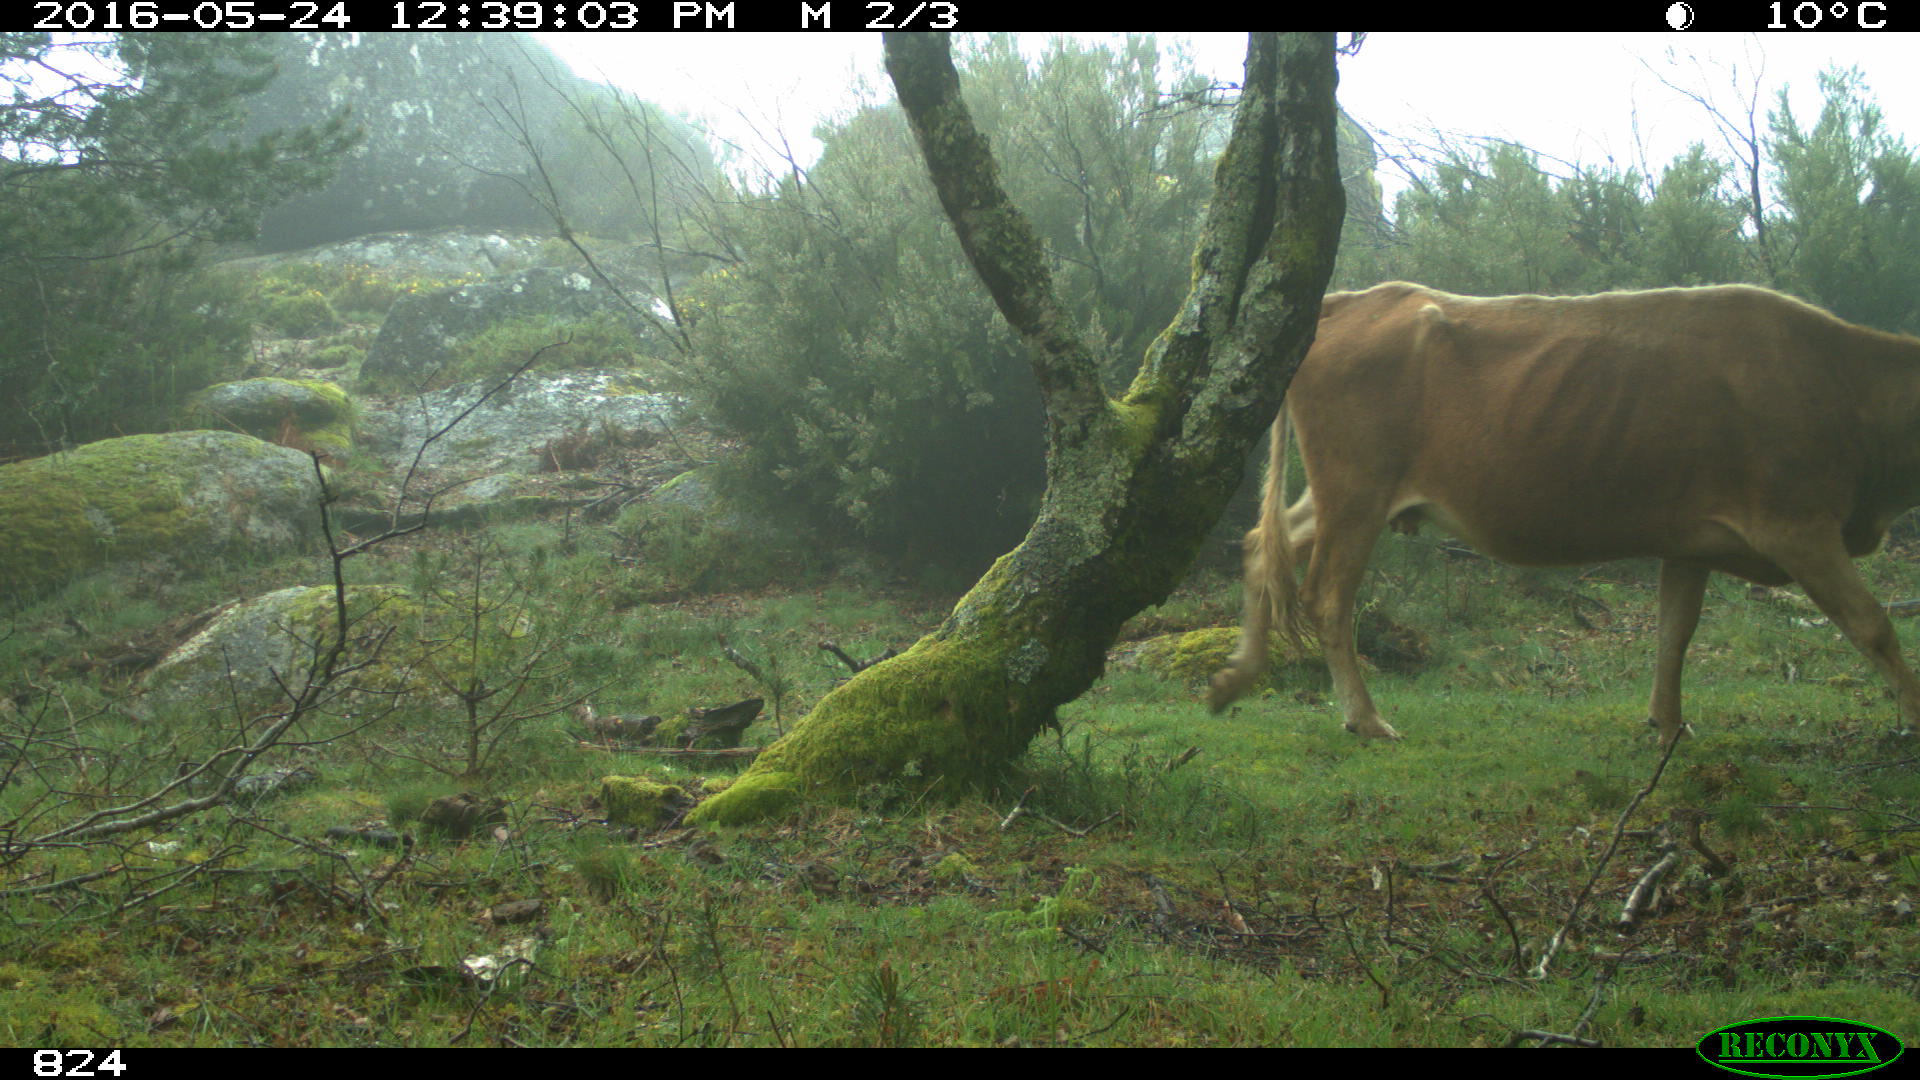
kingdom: Animalia
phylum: Chordata
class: Mammalia
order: Artiodactyla
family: Bovidae
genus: Bos
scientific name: Bos taurus
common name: Domesticated cattle
